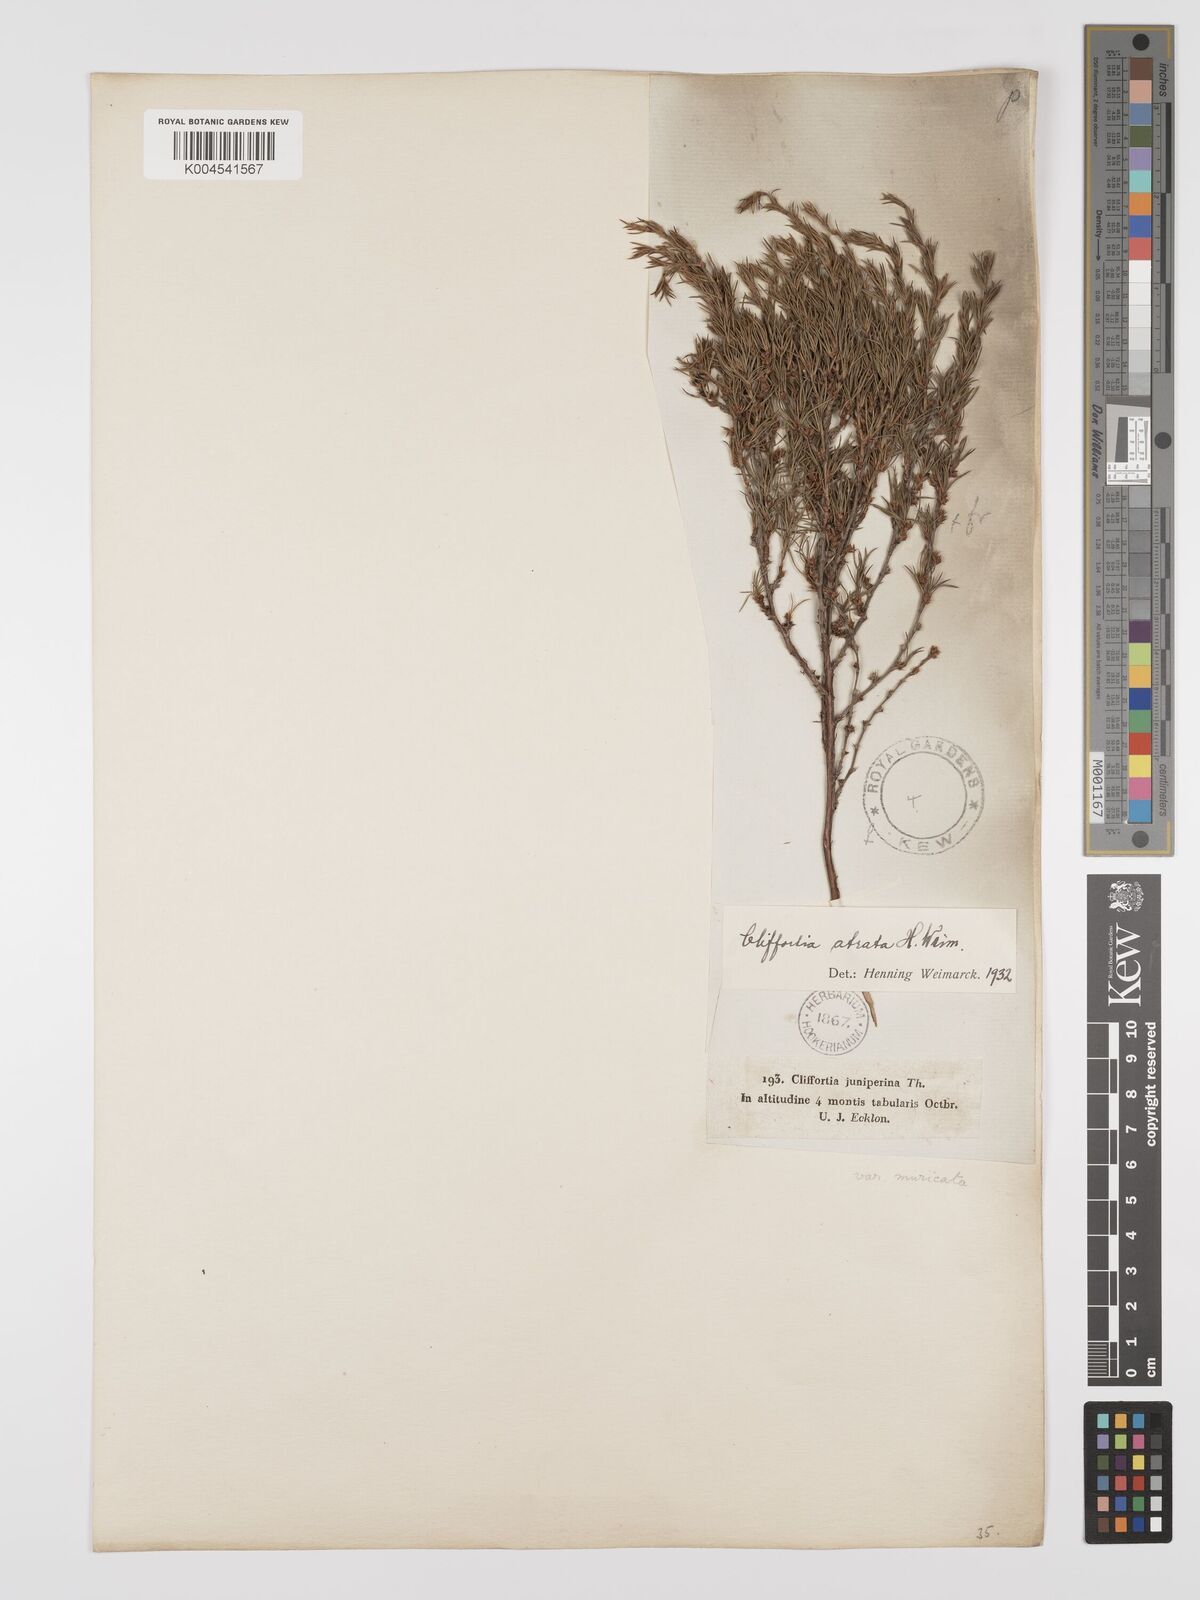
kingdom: Plantae
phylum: Tracheophyta
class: Magnoliopsida
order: Rosales
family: Rosaceae
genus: Cliffortia
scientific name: Cliffortia atrata
